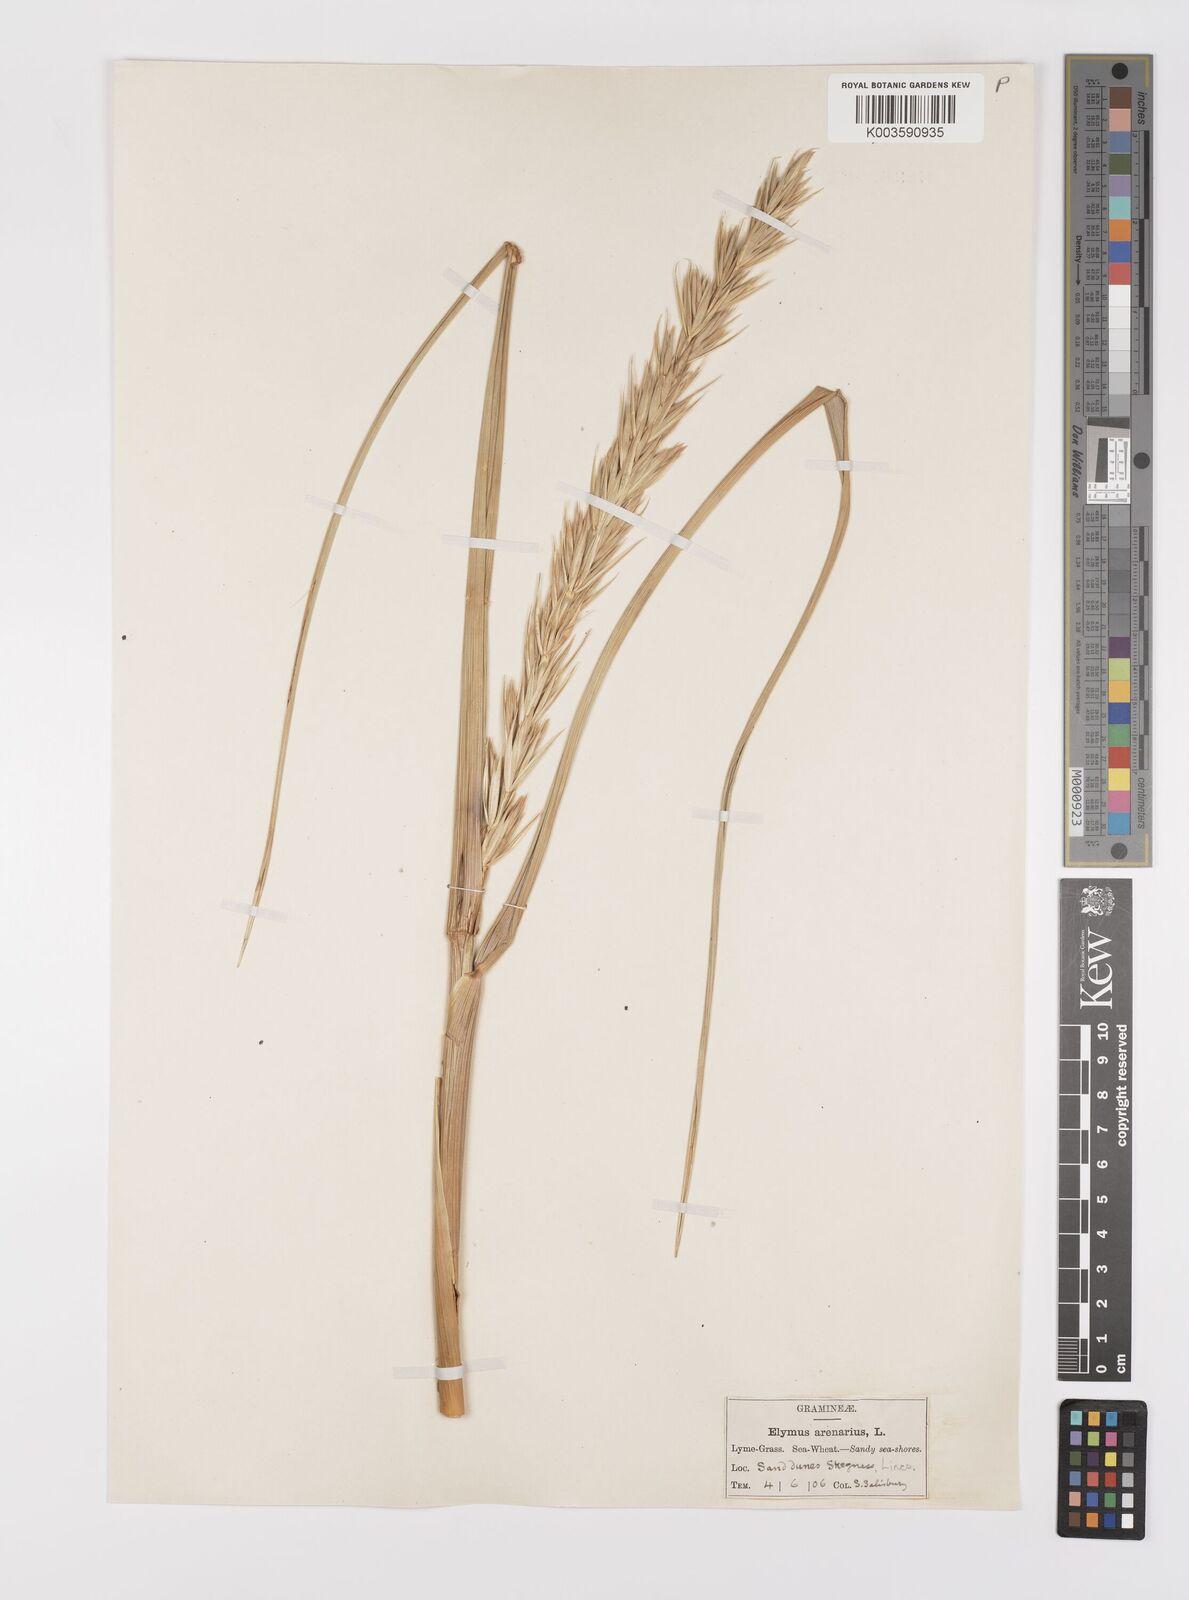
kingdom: Plantae
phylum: Tracheophyta
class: Liliopsida
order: Poales
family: Poaceae
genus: Leymus
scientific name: Leymus
